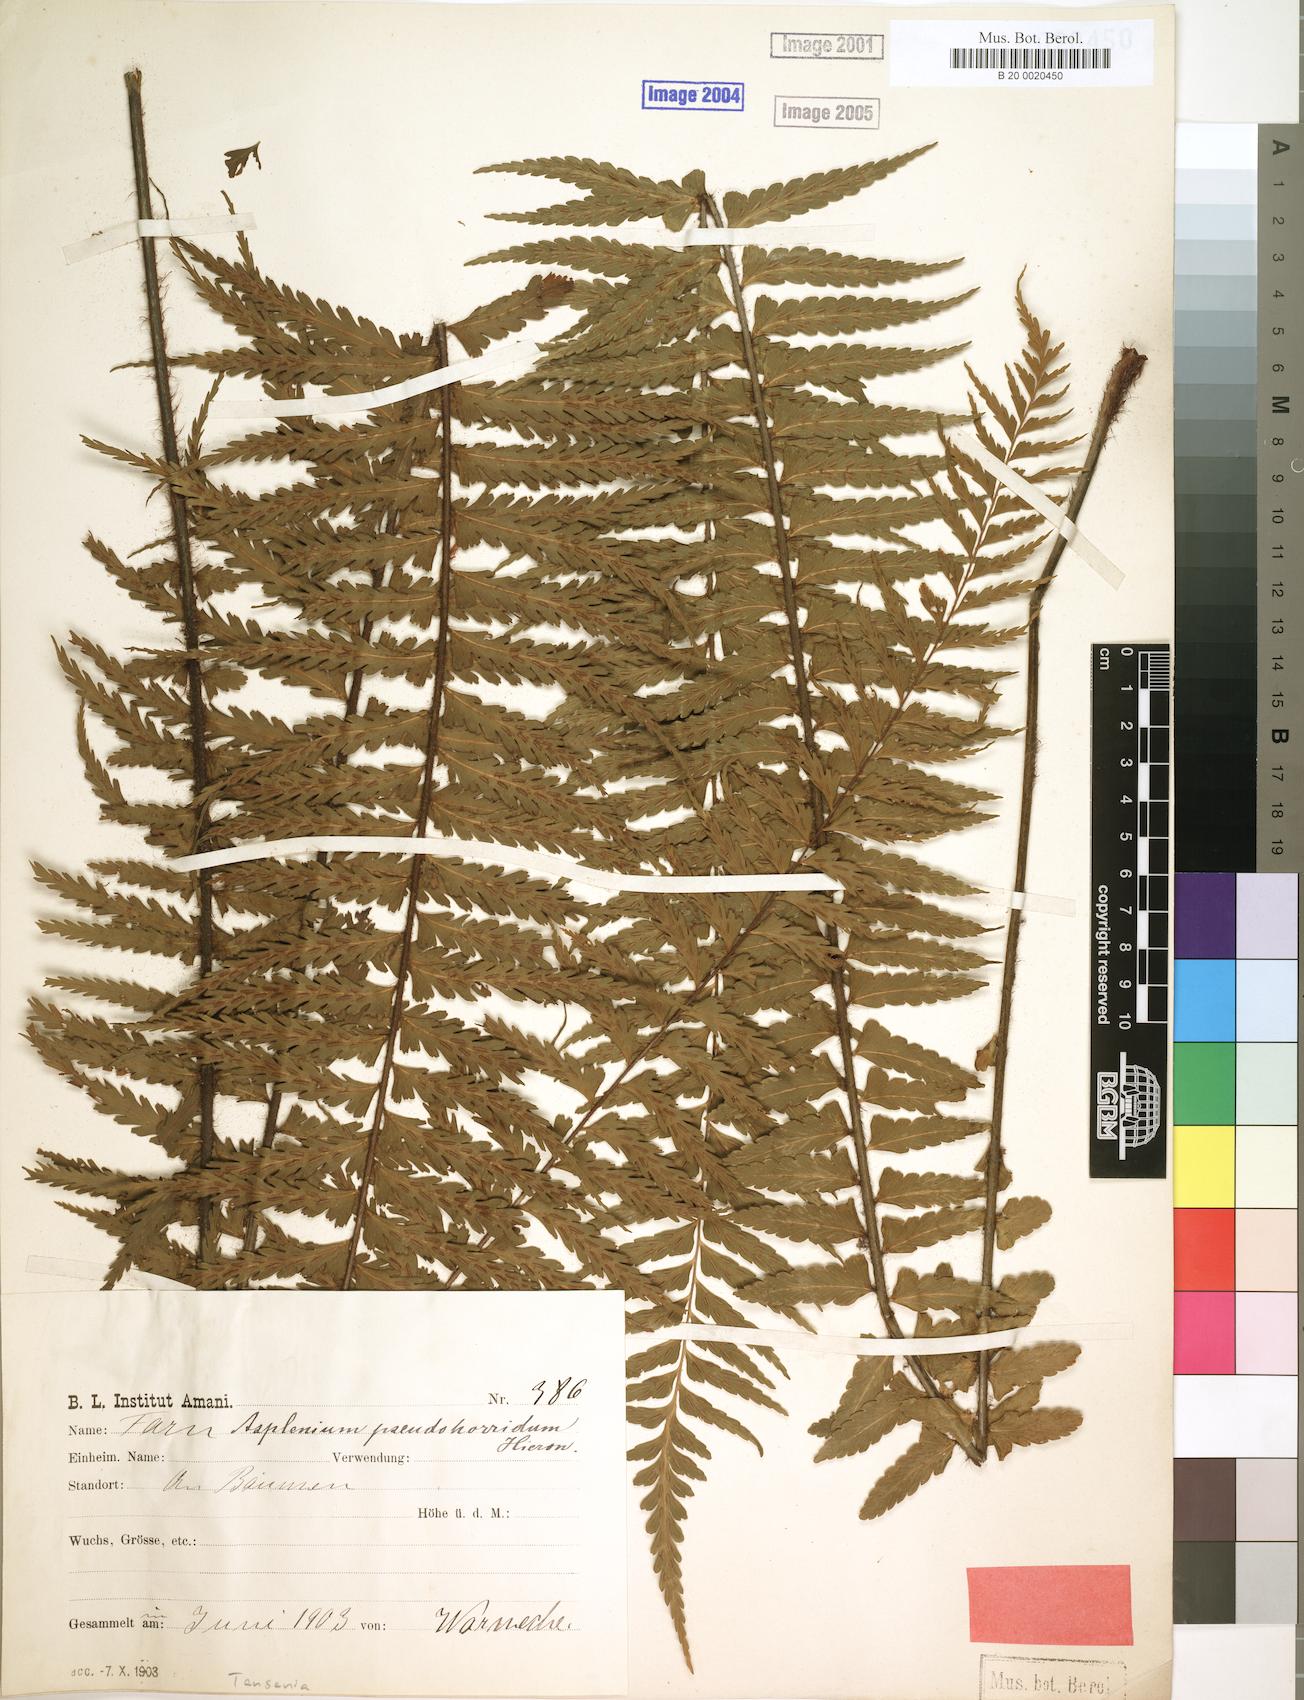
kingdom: Plantae
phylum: Tracheophyta
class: Polypodiopsida
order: Polypodiales
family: Aspleniaceae
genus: Asplenium
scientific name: Asplenium pellucidum
